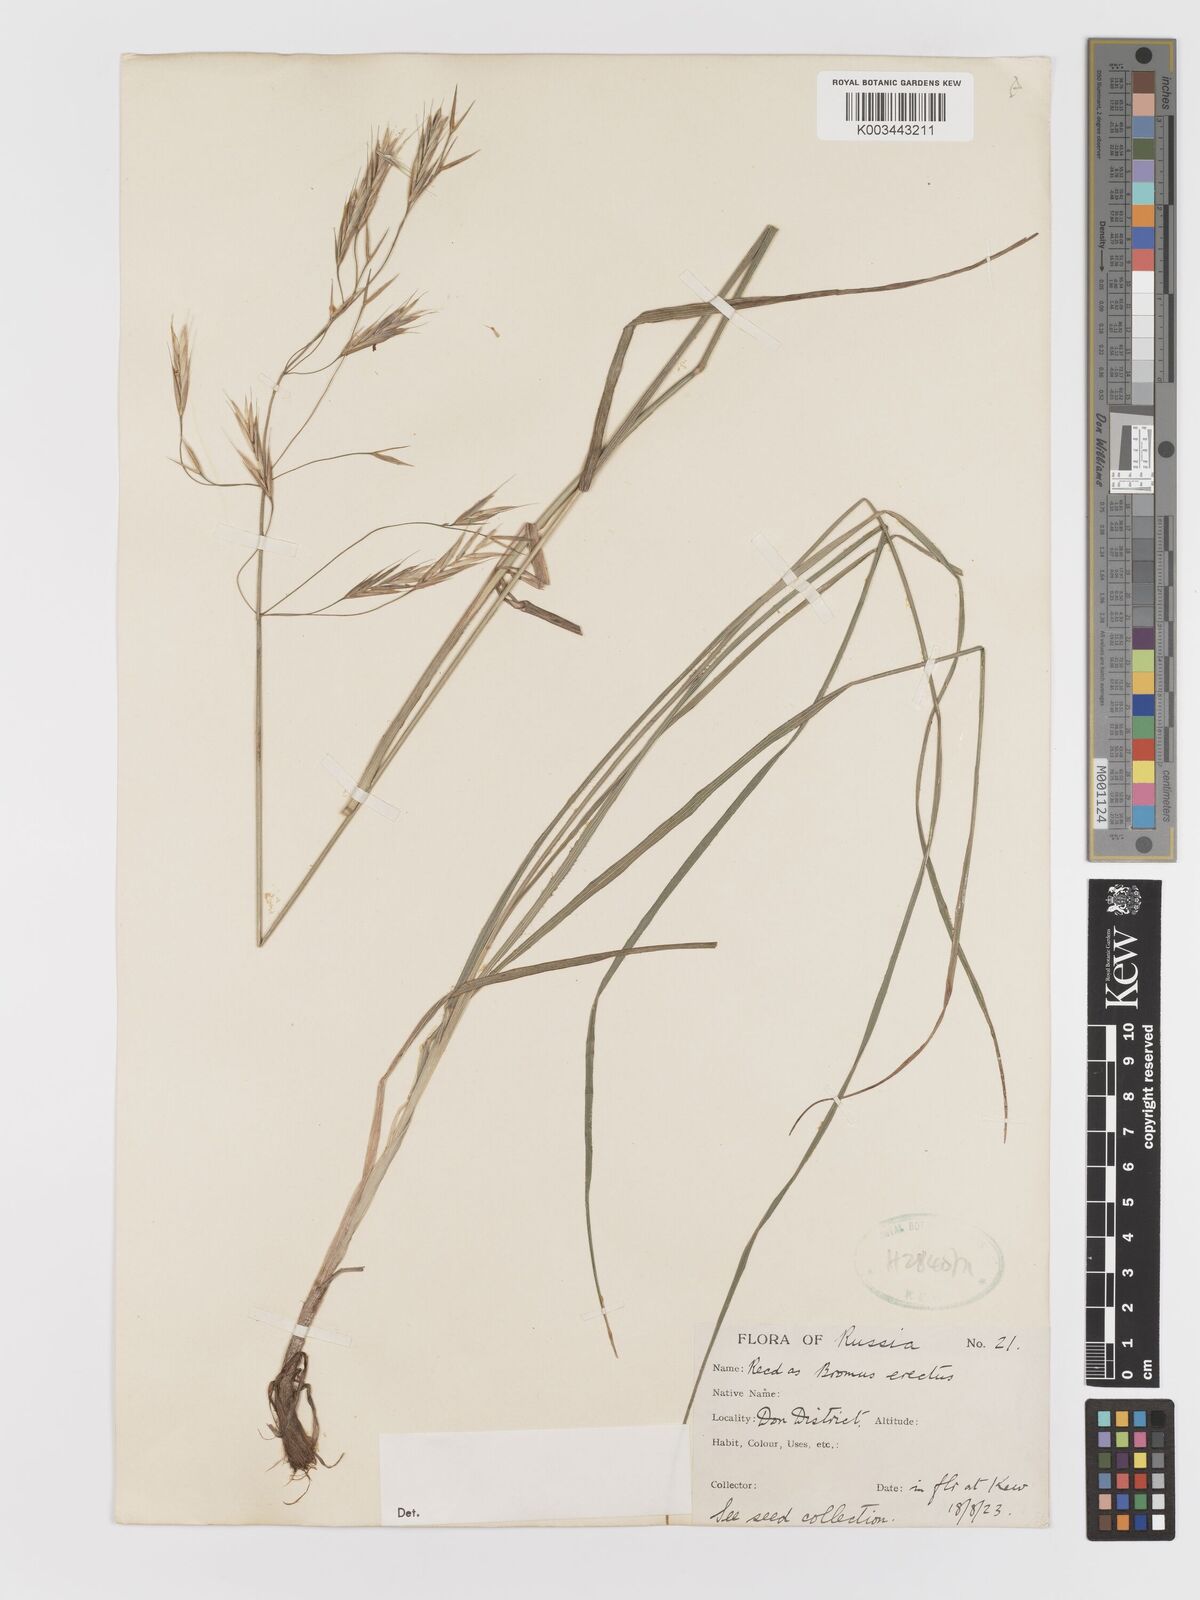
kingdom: Plantae
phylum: Tracheophyta
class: Liliopsida
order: Poales
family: Poaceae
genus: Bromus
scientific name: Bromus
